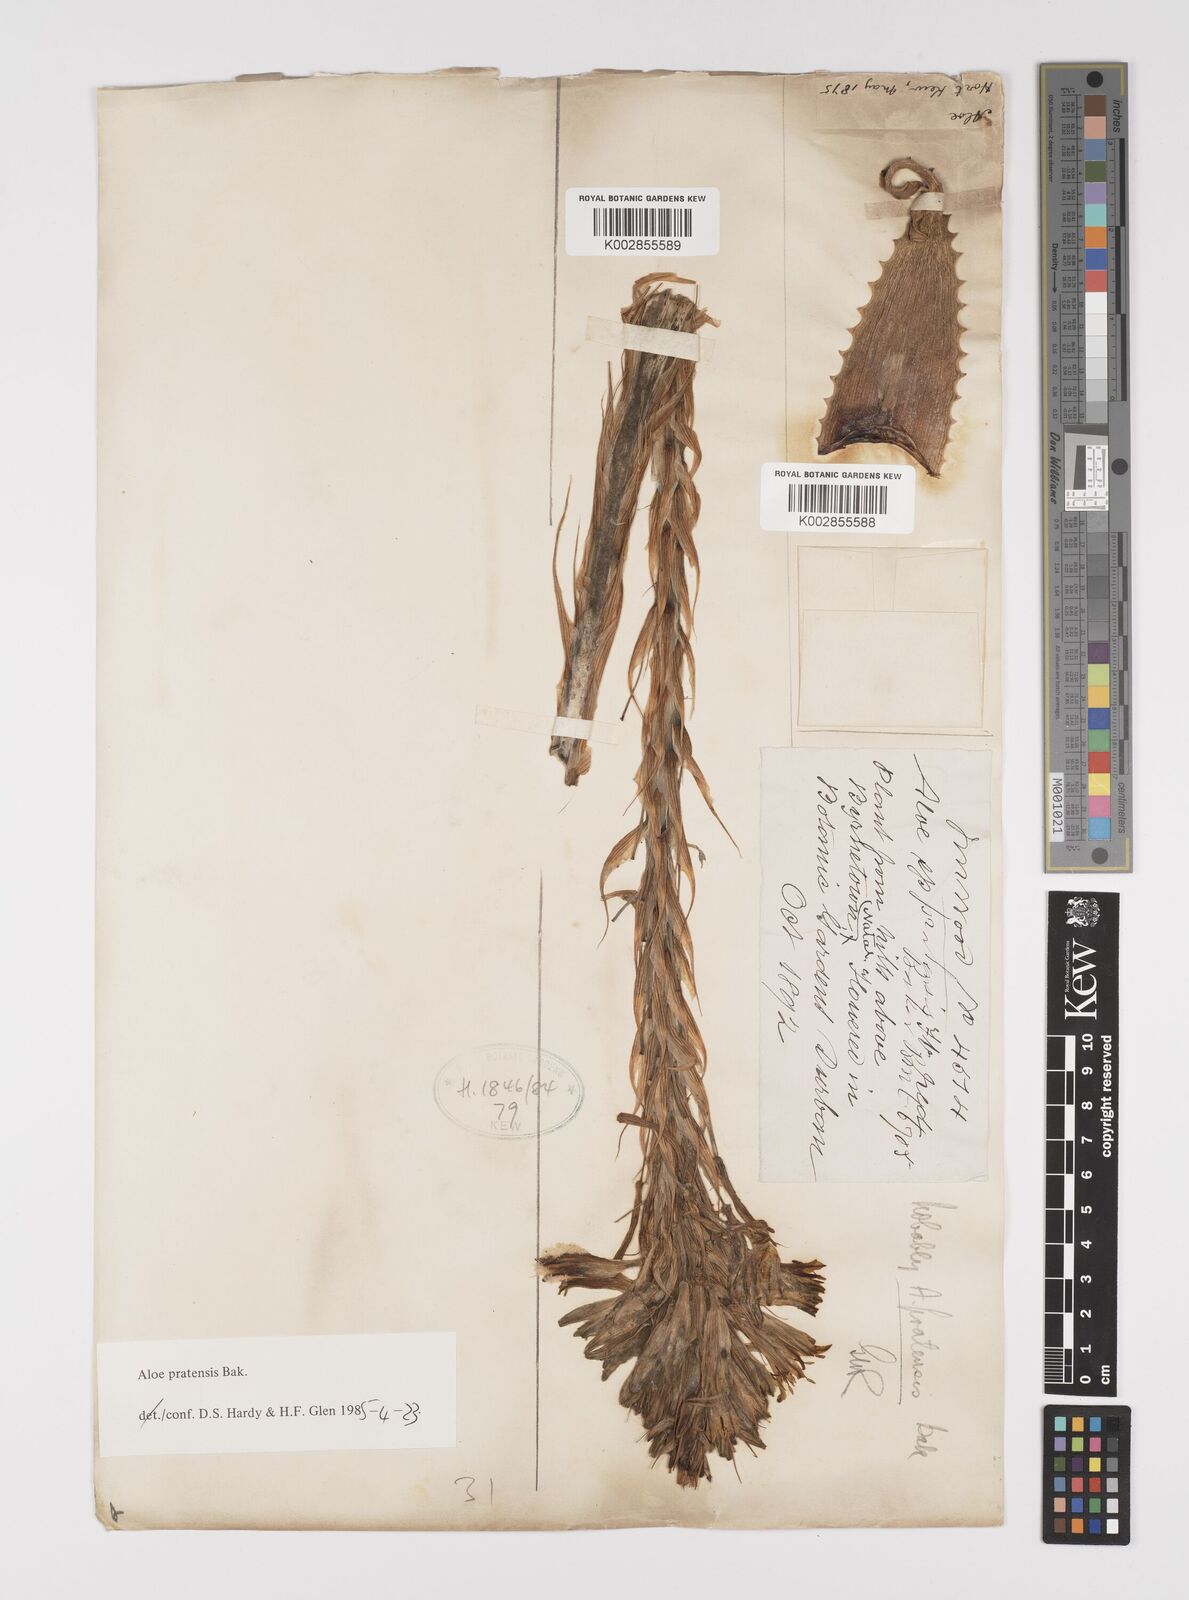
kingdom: Plantae
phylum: Tracheophyta
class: Liliopsida
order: Asparagales
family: Asphodelaceae
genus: Aloe
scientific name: Aloe pratensis
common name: Meadow aloe
